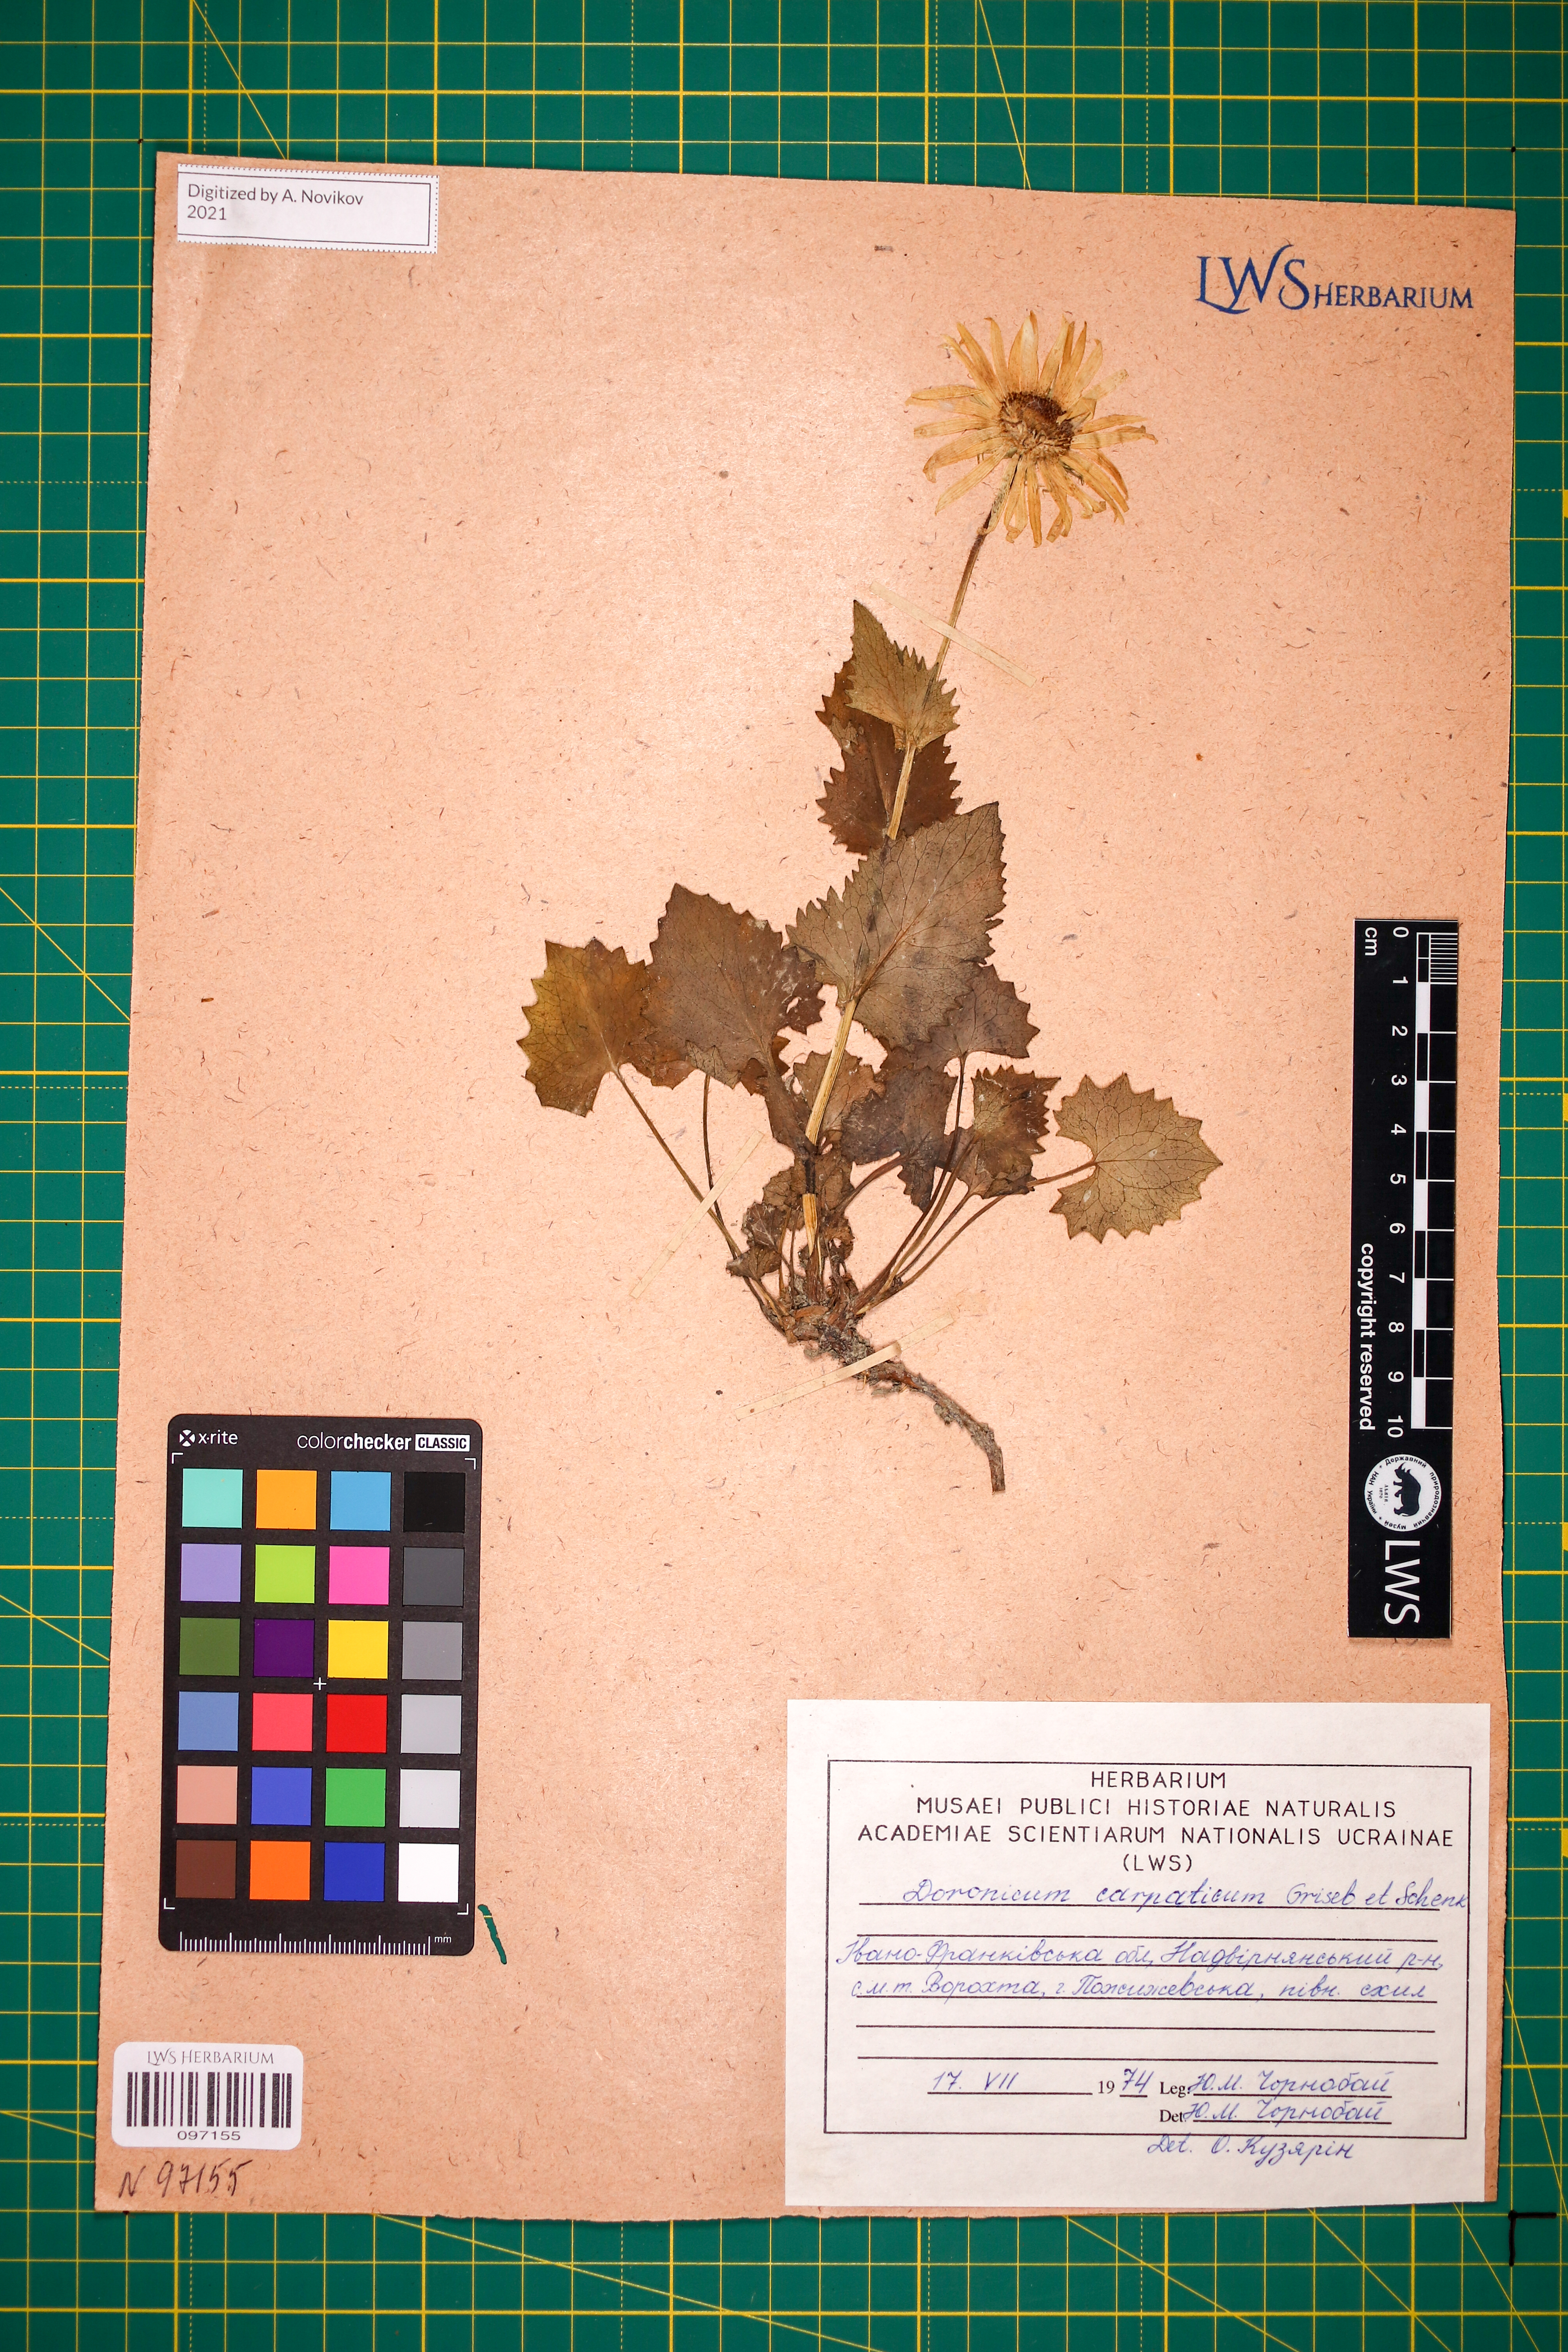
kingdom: Plantae
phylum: Tracheophyta
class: Magnoliopsida
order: Asterales
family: Asteraceae
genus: Doronicum
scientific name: Doronicum carpaticum
